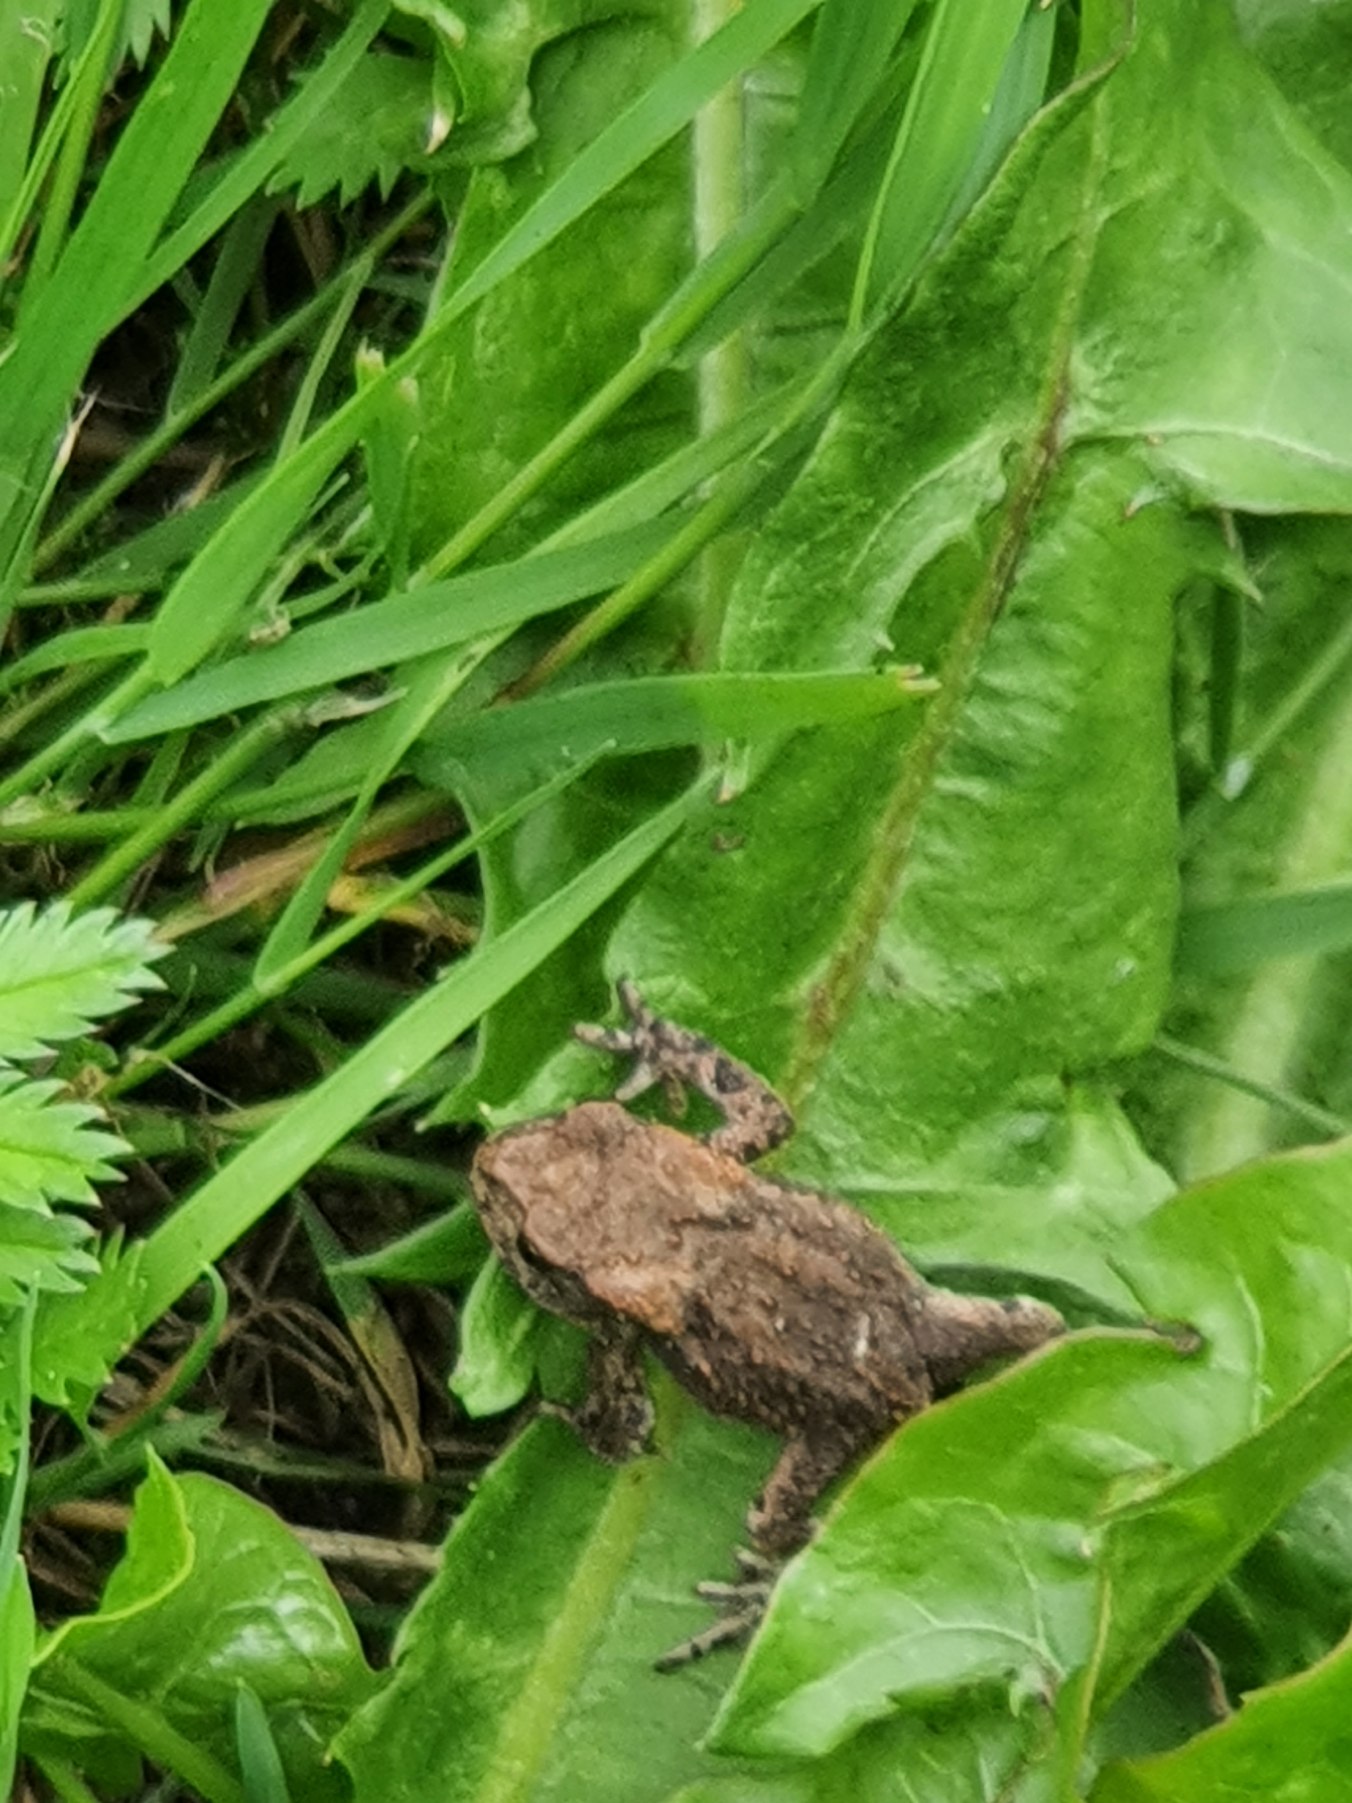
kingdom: Animalia
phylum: Chordata
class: Amphibia
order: Anura
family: Bufonidae
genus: Bufo
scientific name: Bufo bufo
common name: Skrubtudse
